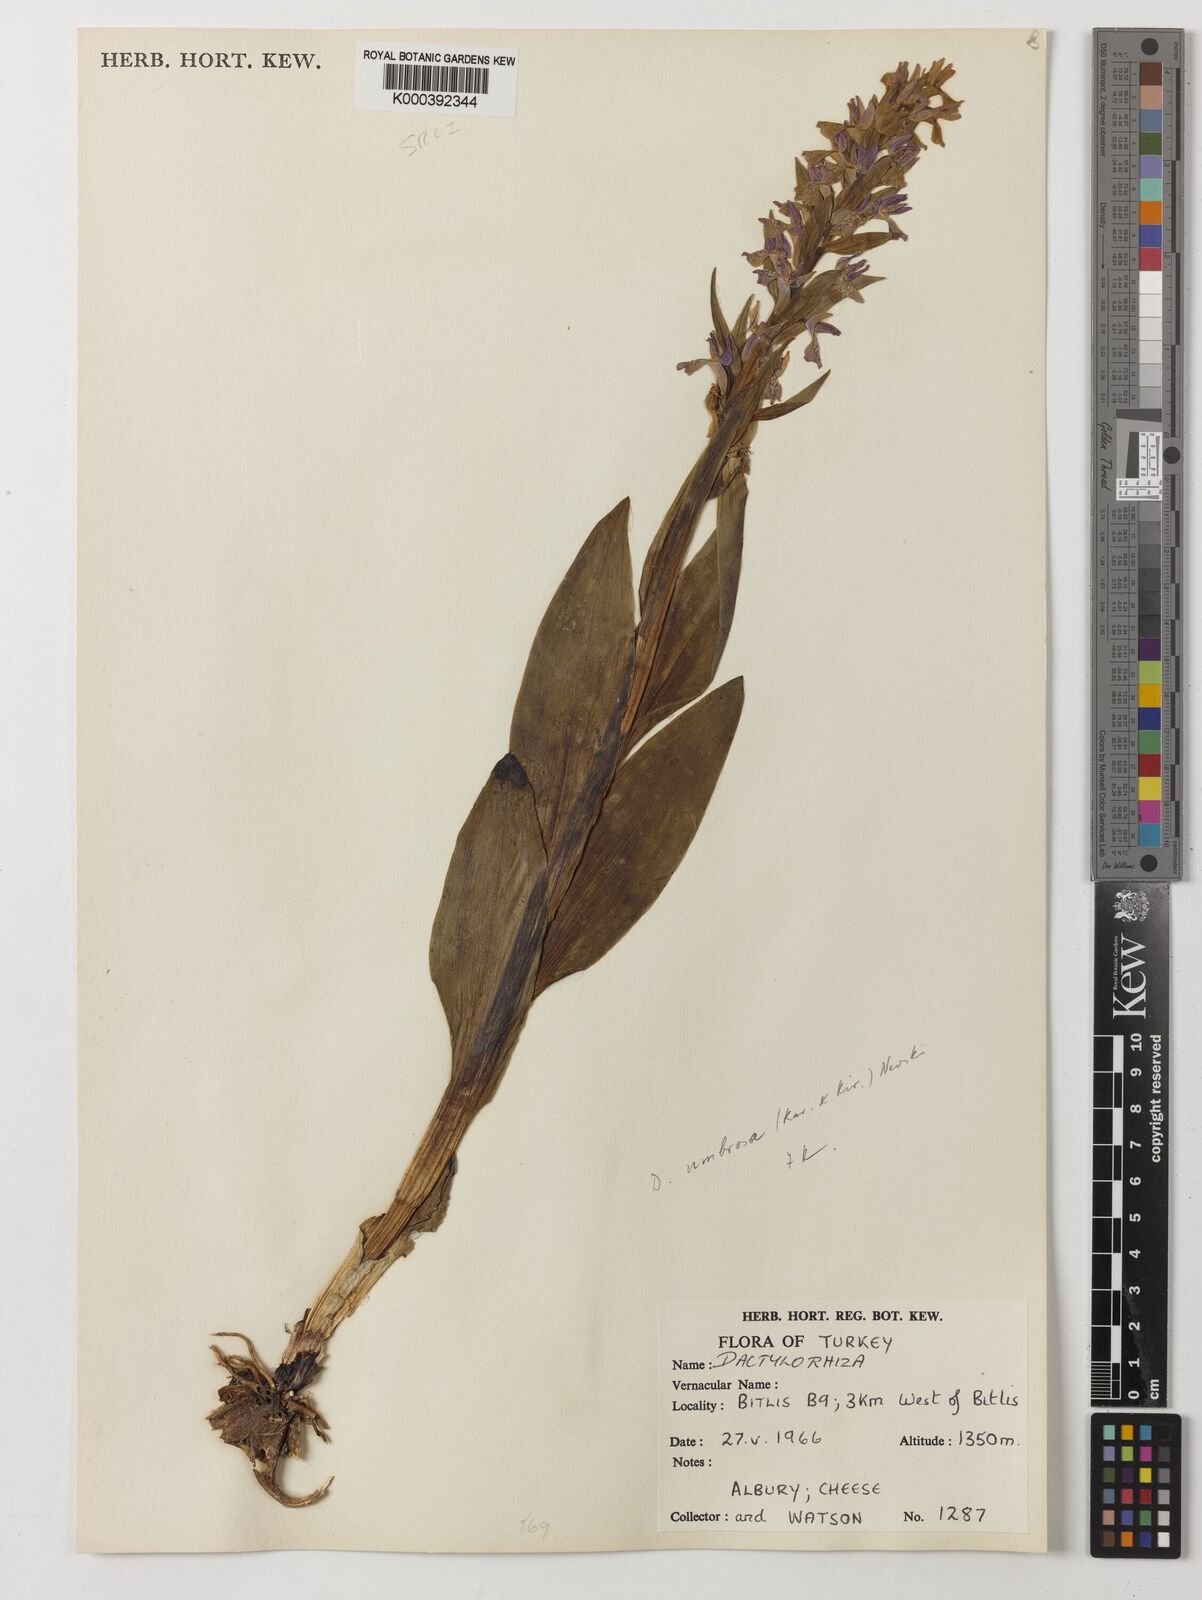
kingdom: Plantae
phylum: Tracheophyta
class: Liliopsida
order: Asparagales
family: Orchidaceae
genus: Dactylorhiza
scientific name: Dactylorhiza
